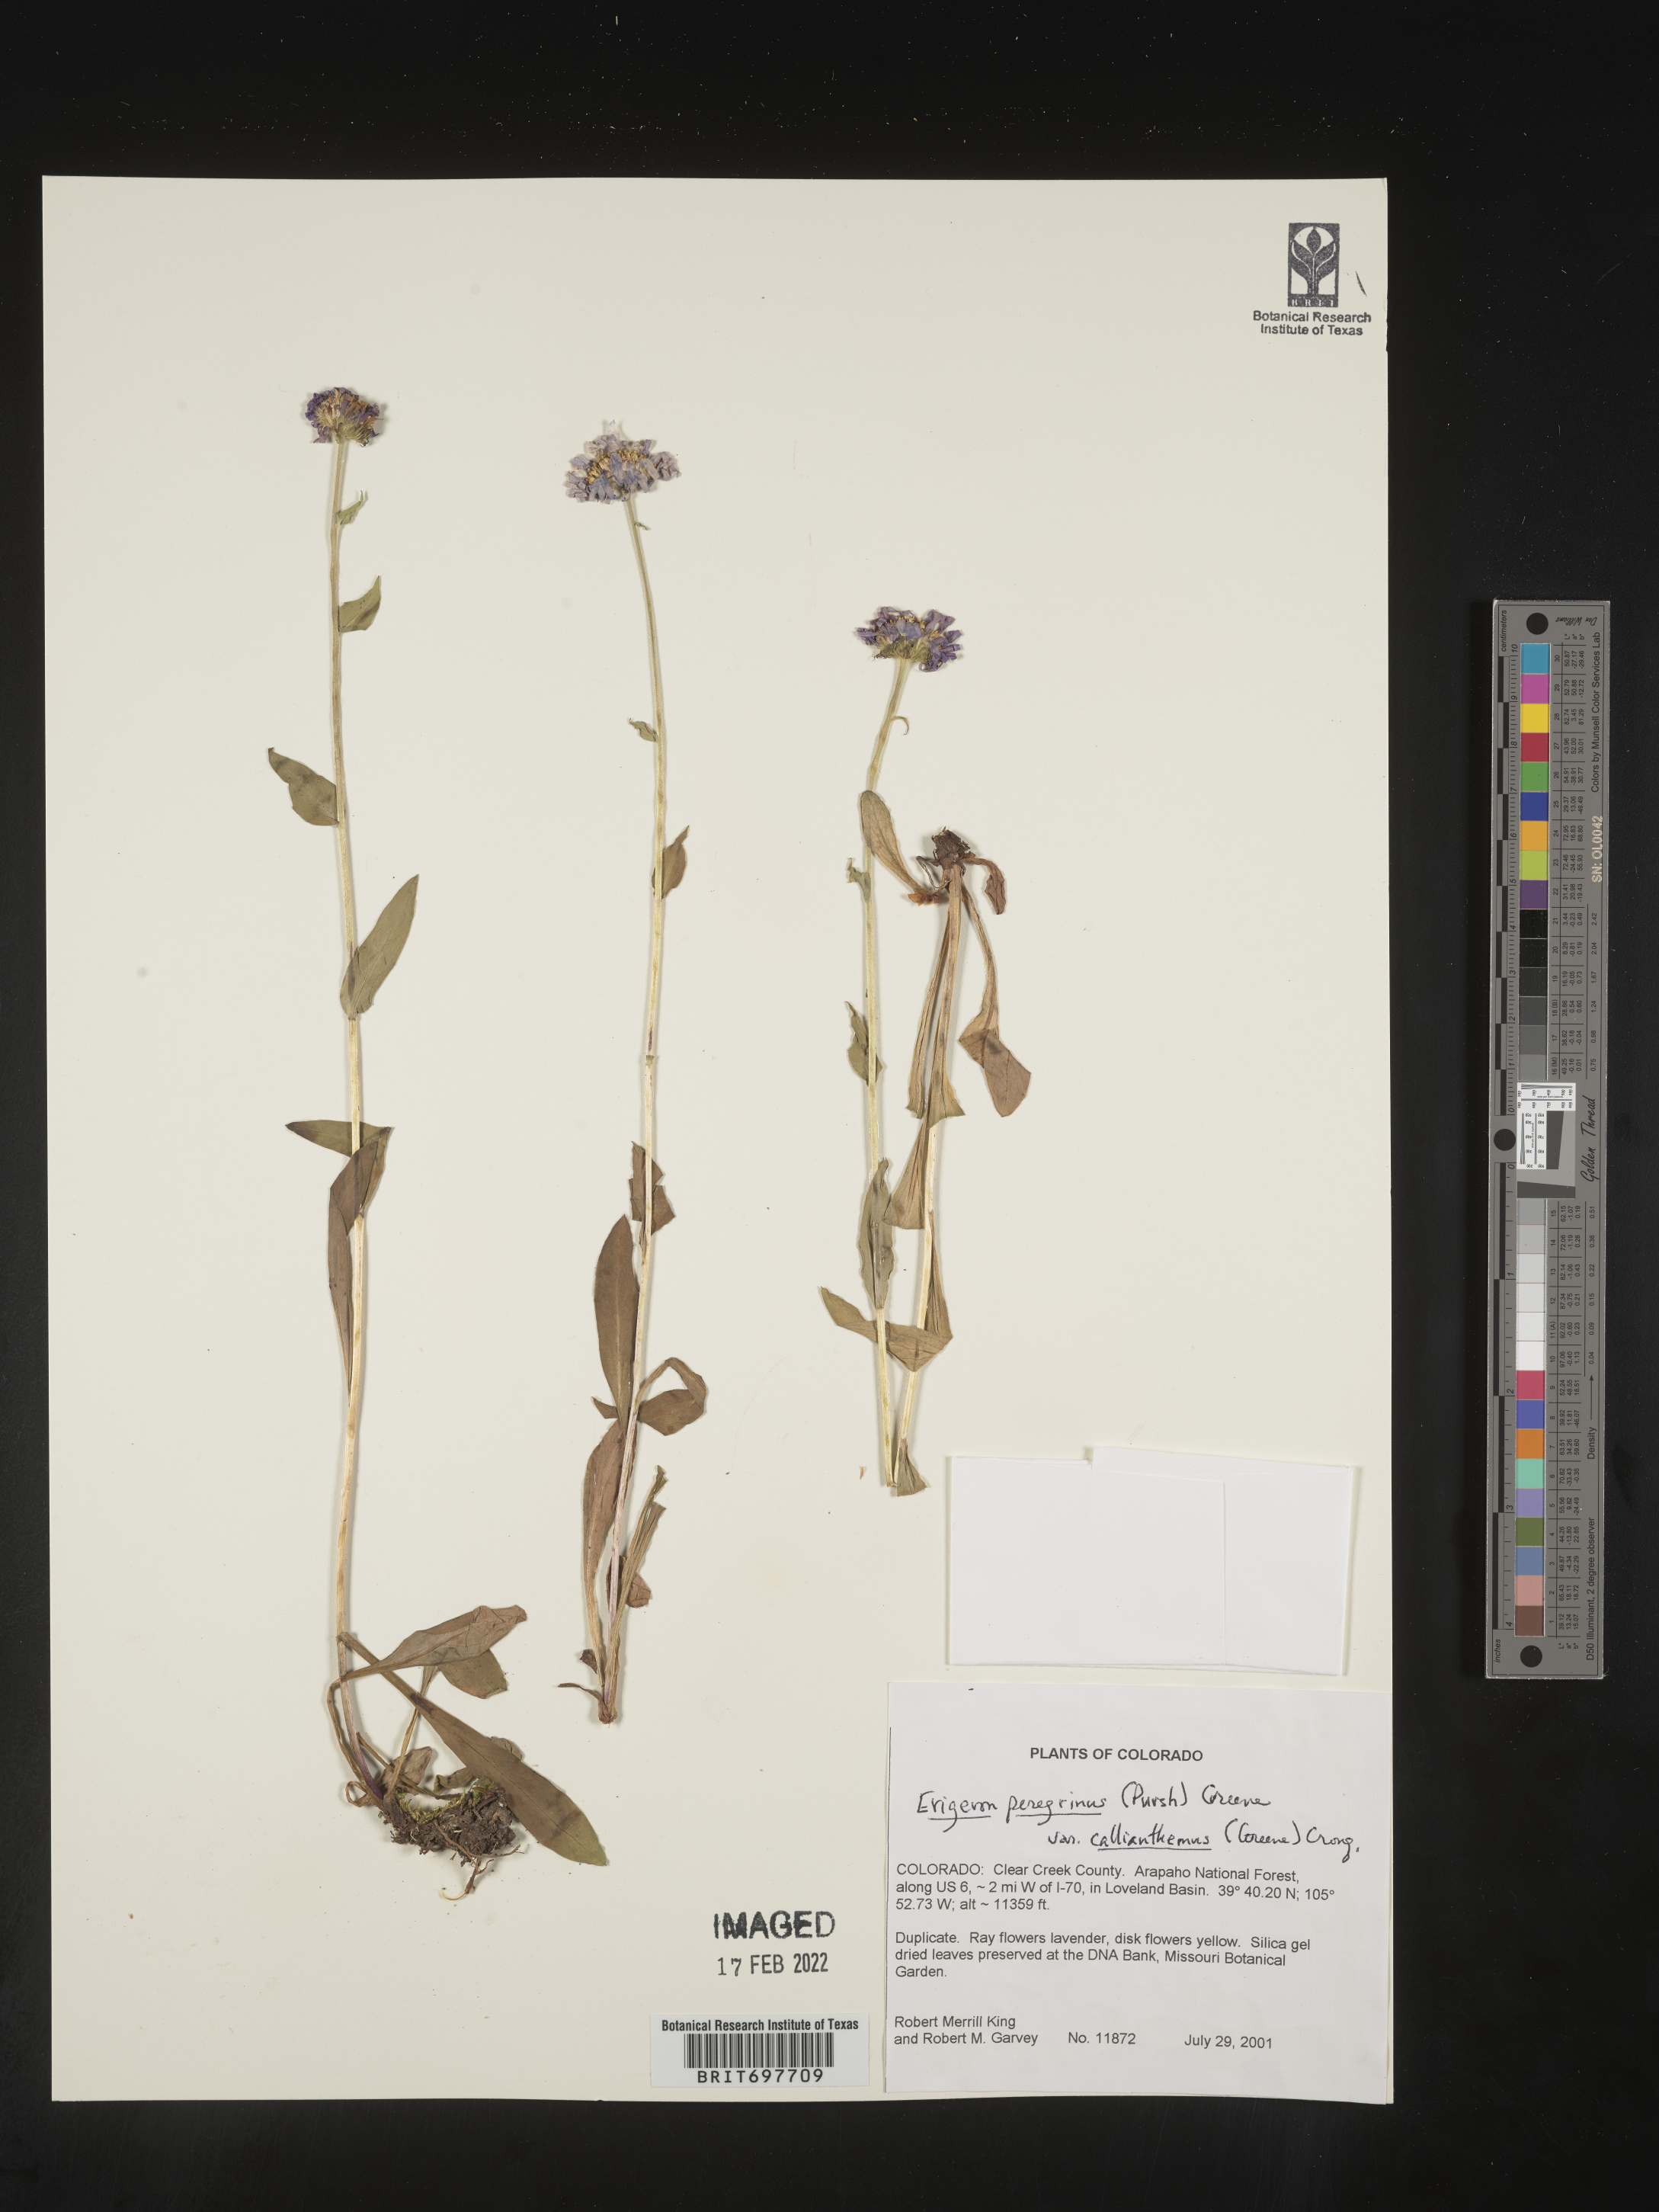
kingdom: Plantae
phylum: Tracheophyta
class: Magnoliopsida
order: Asterales
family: Asteraceae
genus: Erigeron
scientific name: Erigeron glacialis
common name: Subalpine fleabane
